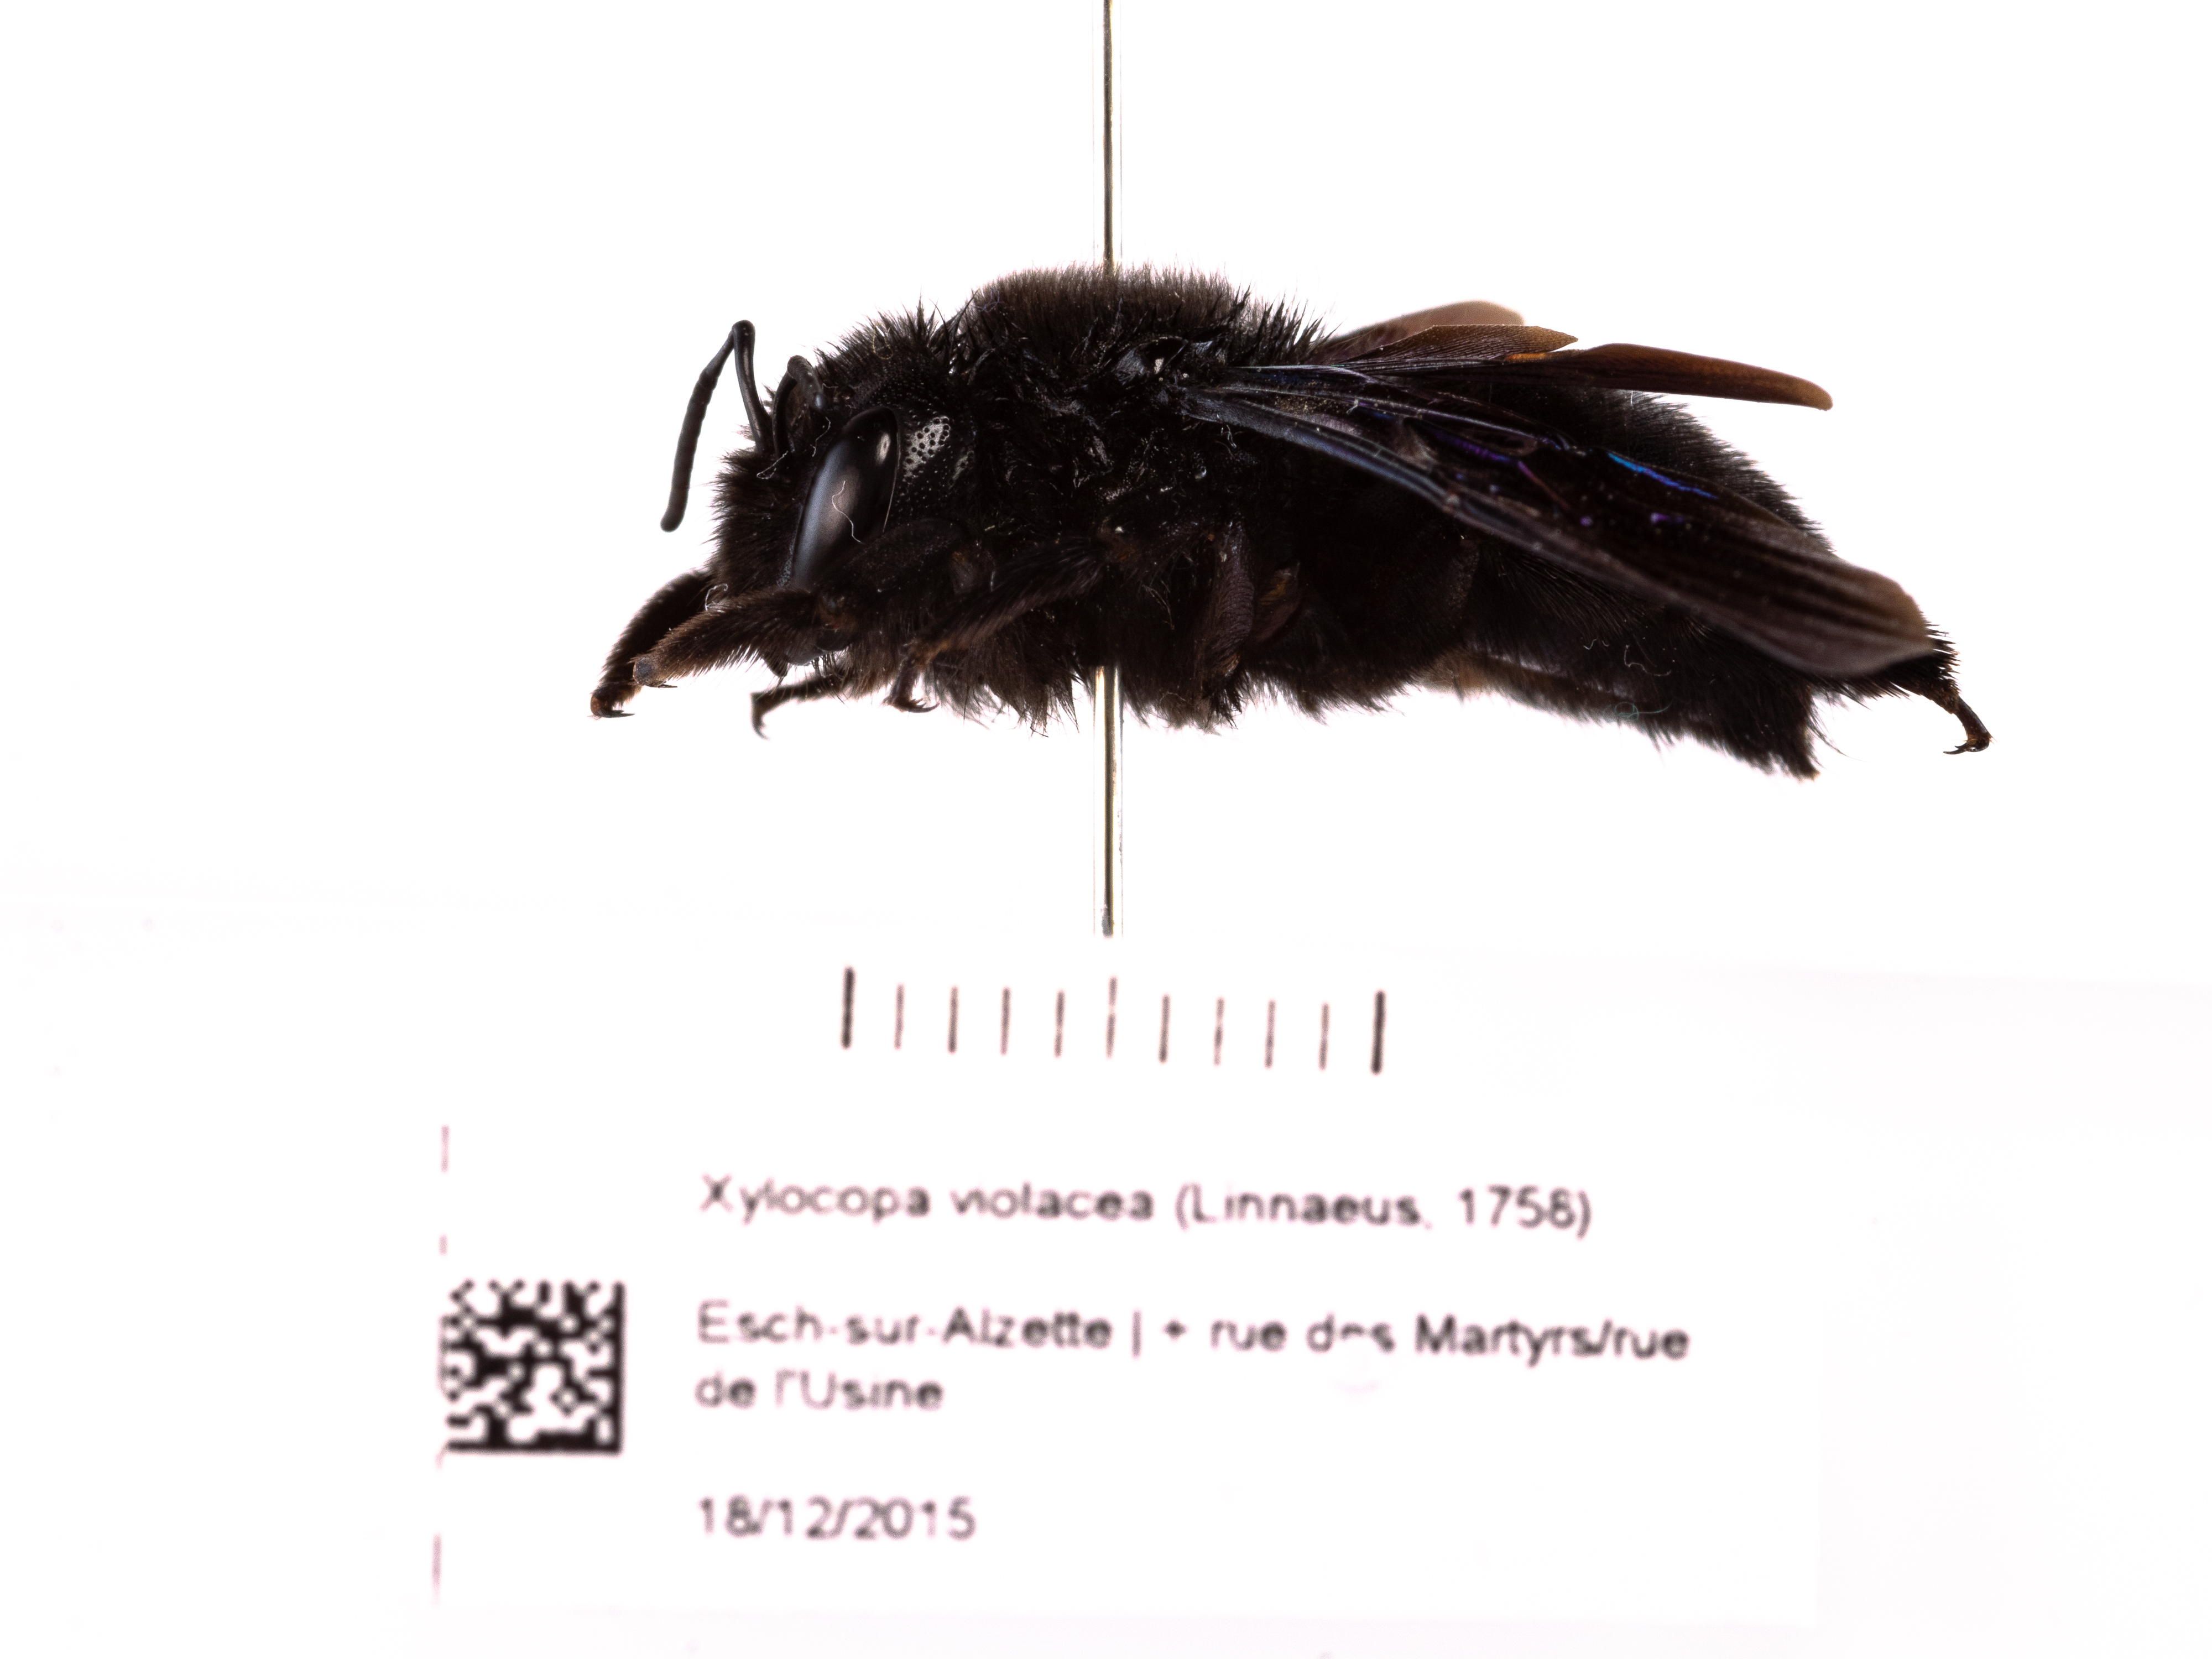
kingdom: Animalia
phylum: Arthropoda
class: Insecta
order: Hymenoptera
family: Apidae
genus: Xylocopa
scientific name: Xylocopa violacea
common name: Violet carpenter bee
